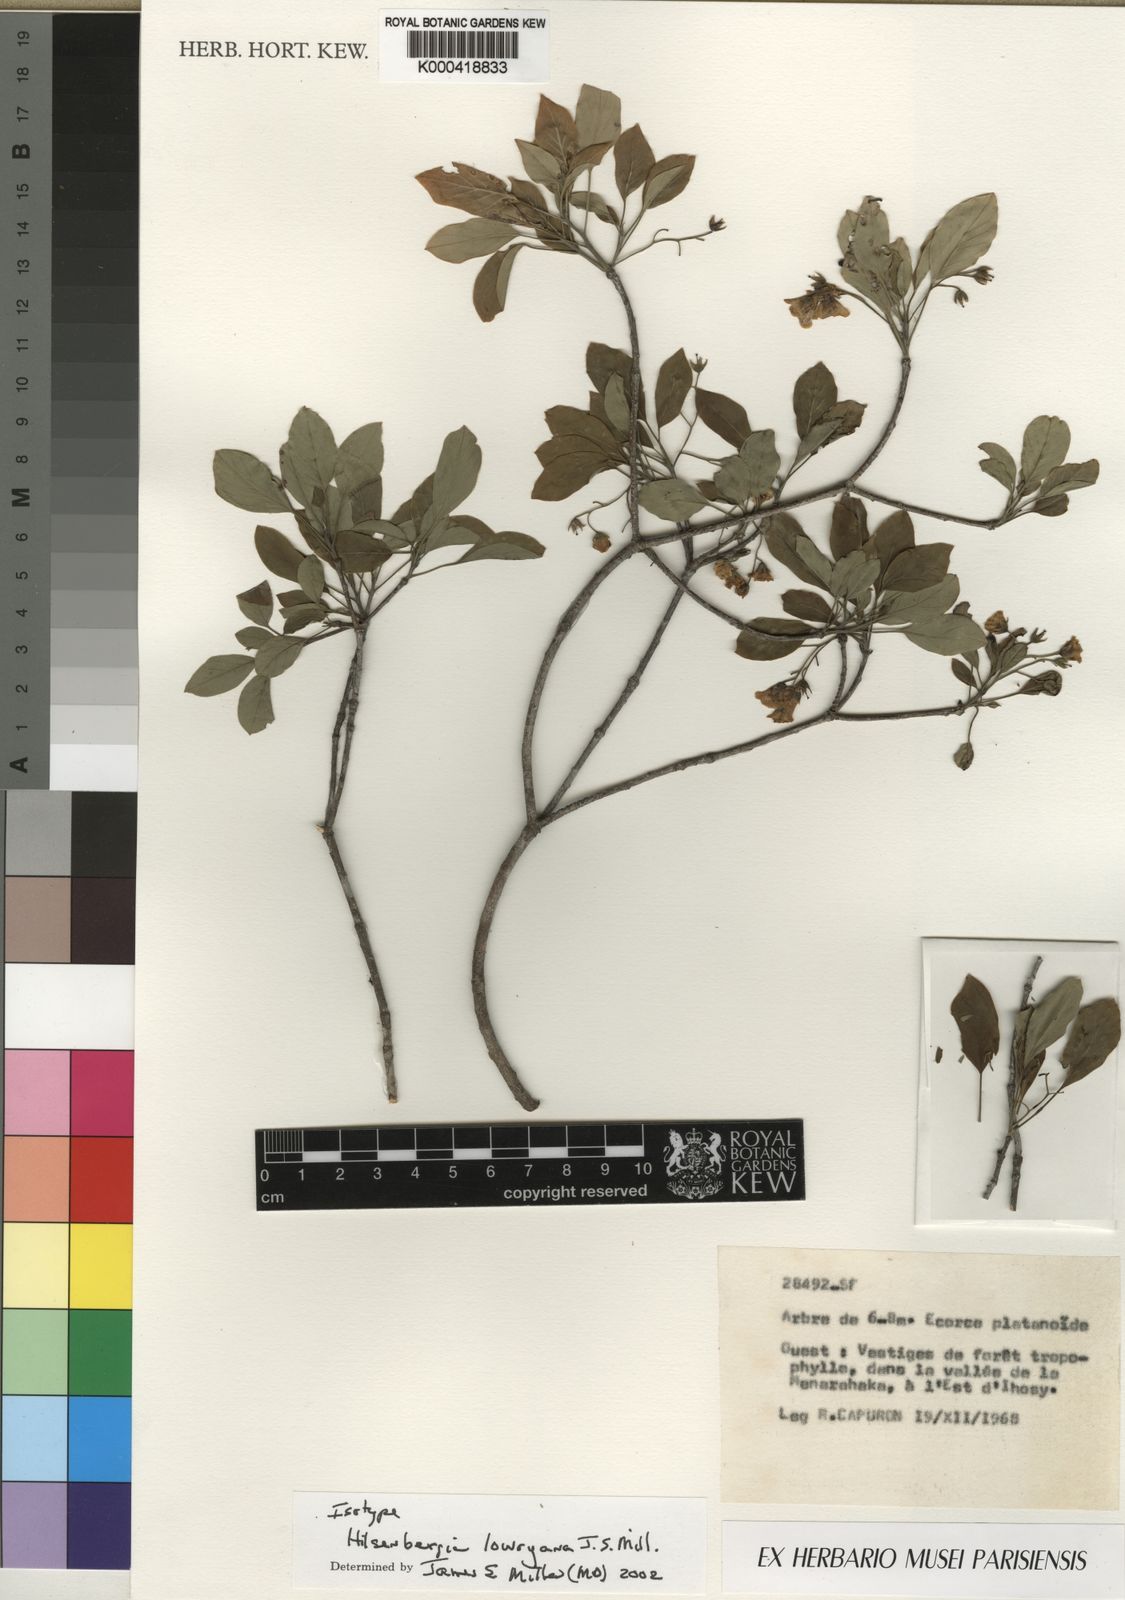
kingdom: Plantae
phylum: Tracheophyta
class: Magnoliopsida
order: Boraginales
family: Ehretiaceae
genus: Ehretia
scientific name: Ehretia
